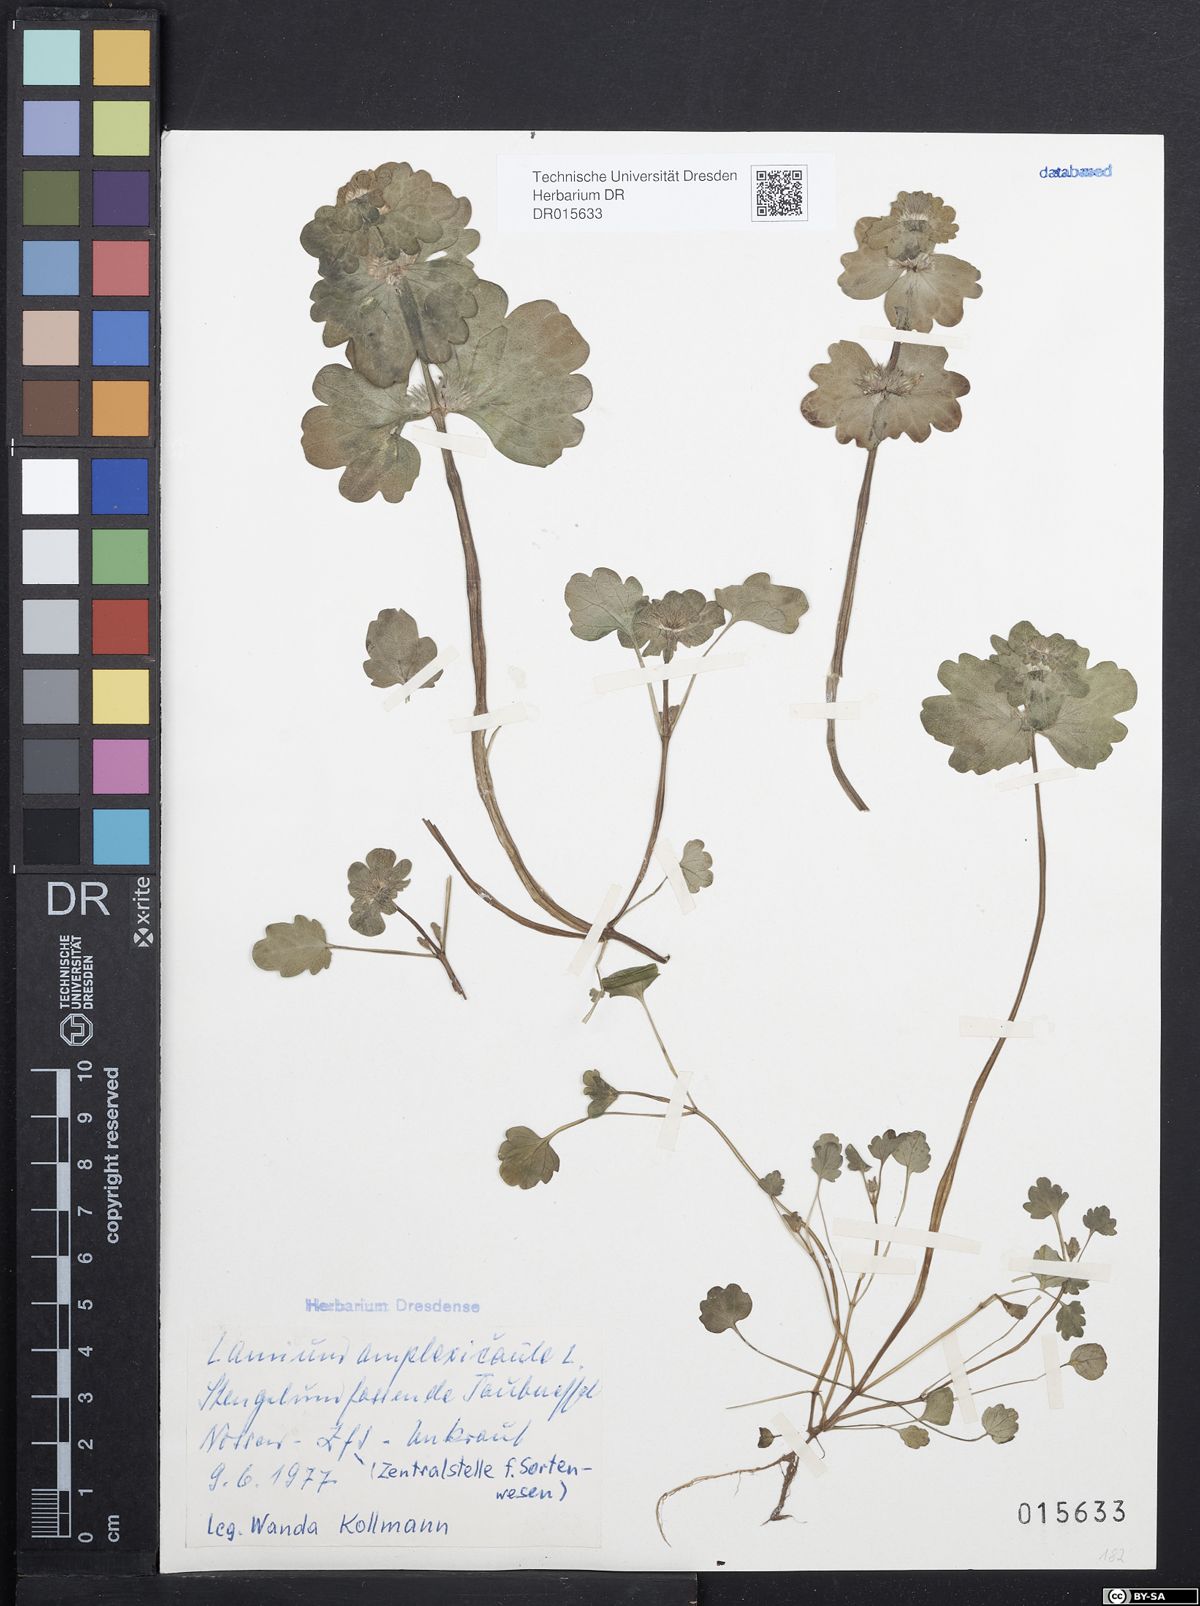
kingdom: Plantae
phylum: Tracheophyta
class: Magnoliopsida
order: Lamiales
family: Lamiaceae
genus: Lamium
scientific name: Lamium amplexicaule
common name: Henbit dead-nettle
